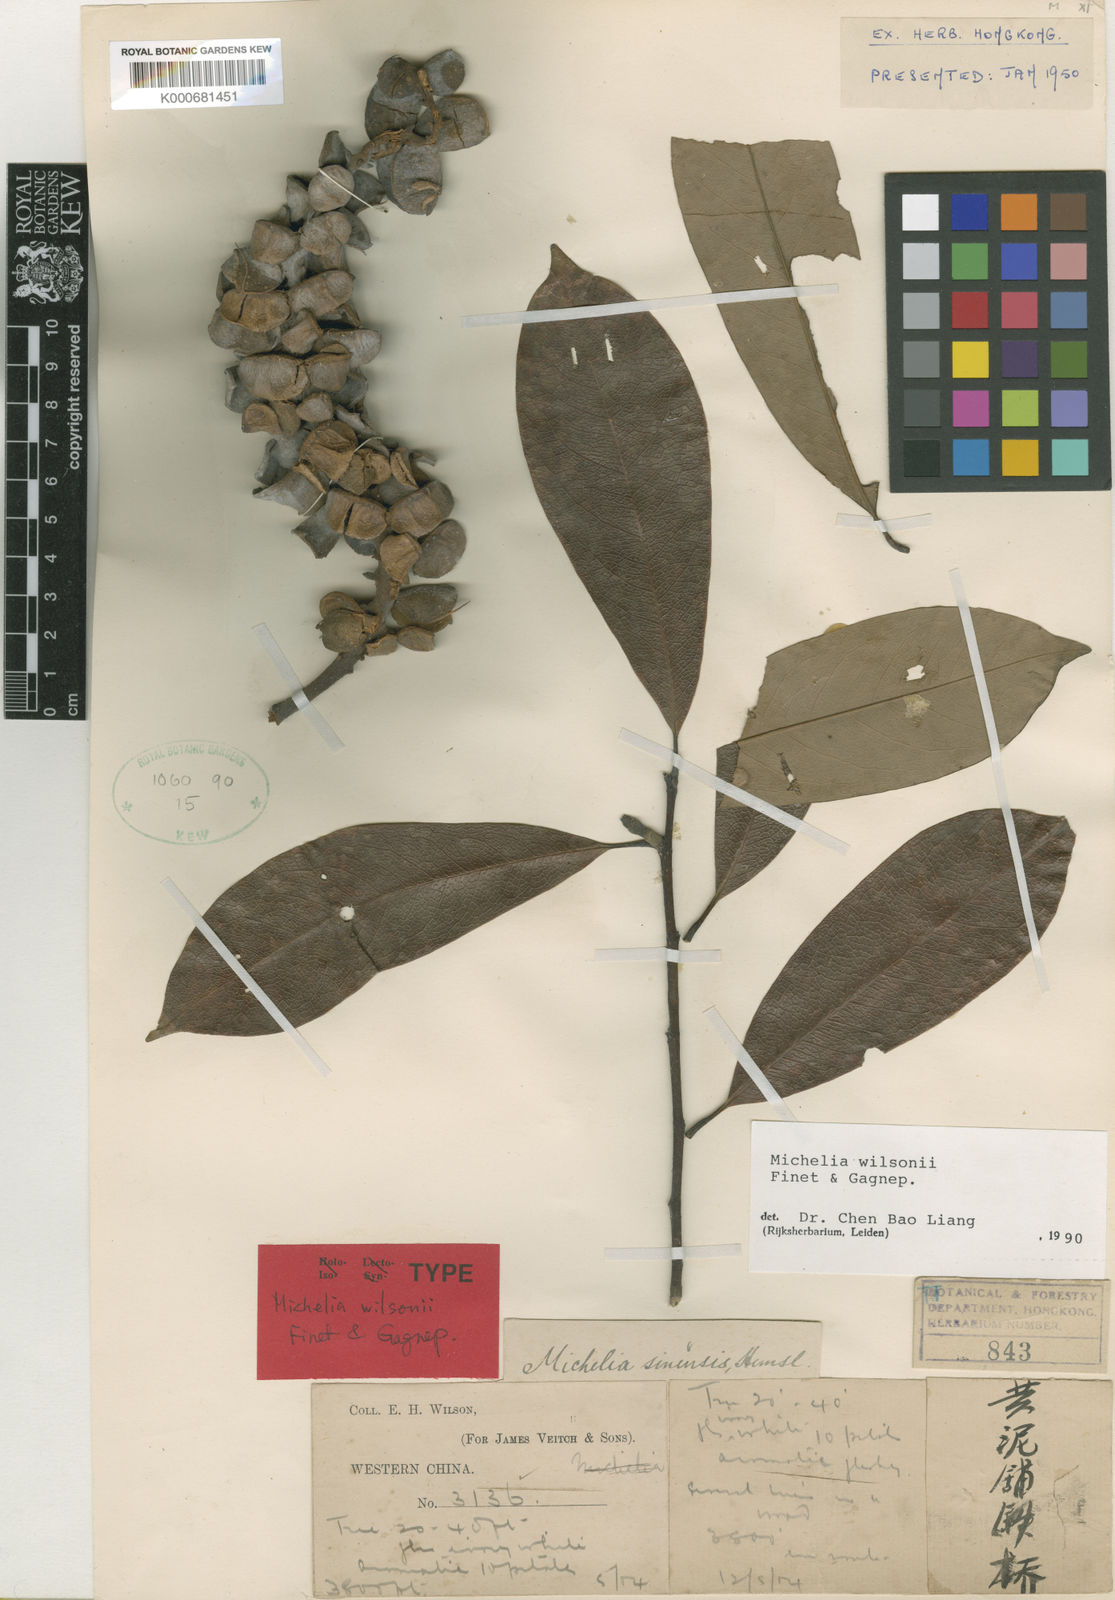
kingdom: Plantae
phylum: Tracheophyta
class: Magnoliopsida
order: Magnoliales
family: Magnoliaceae
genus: Magnolia
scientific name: Magnolia ernestii
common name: Yellow lily-tree
